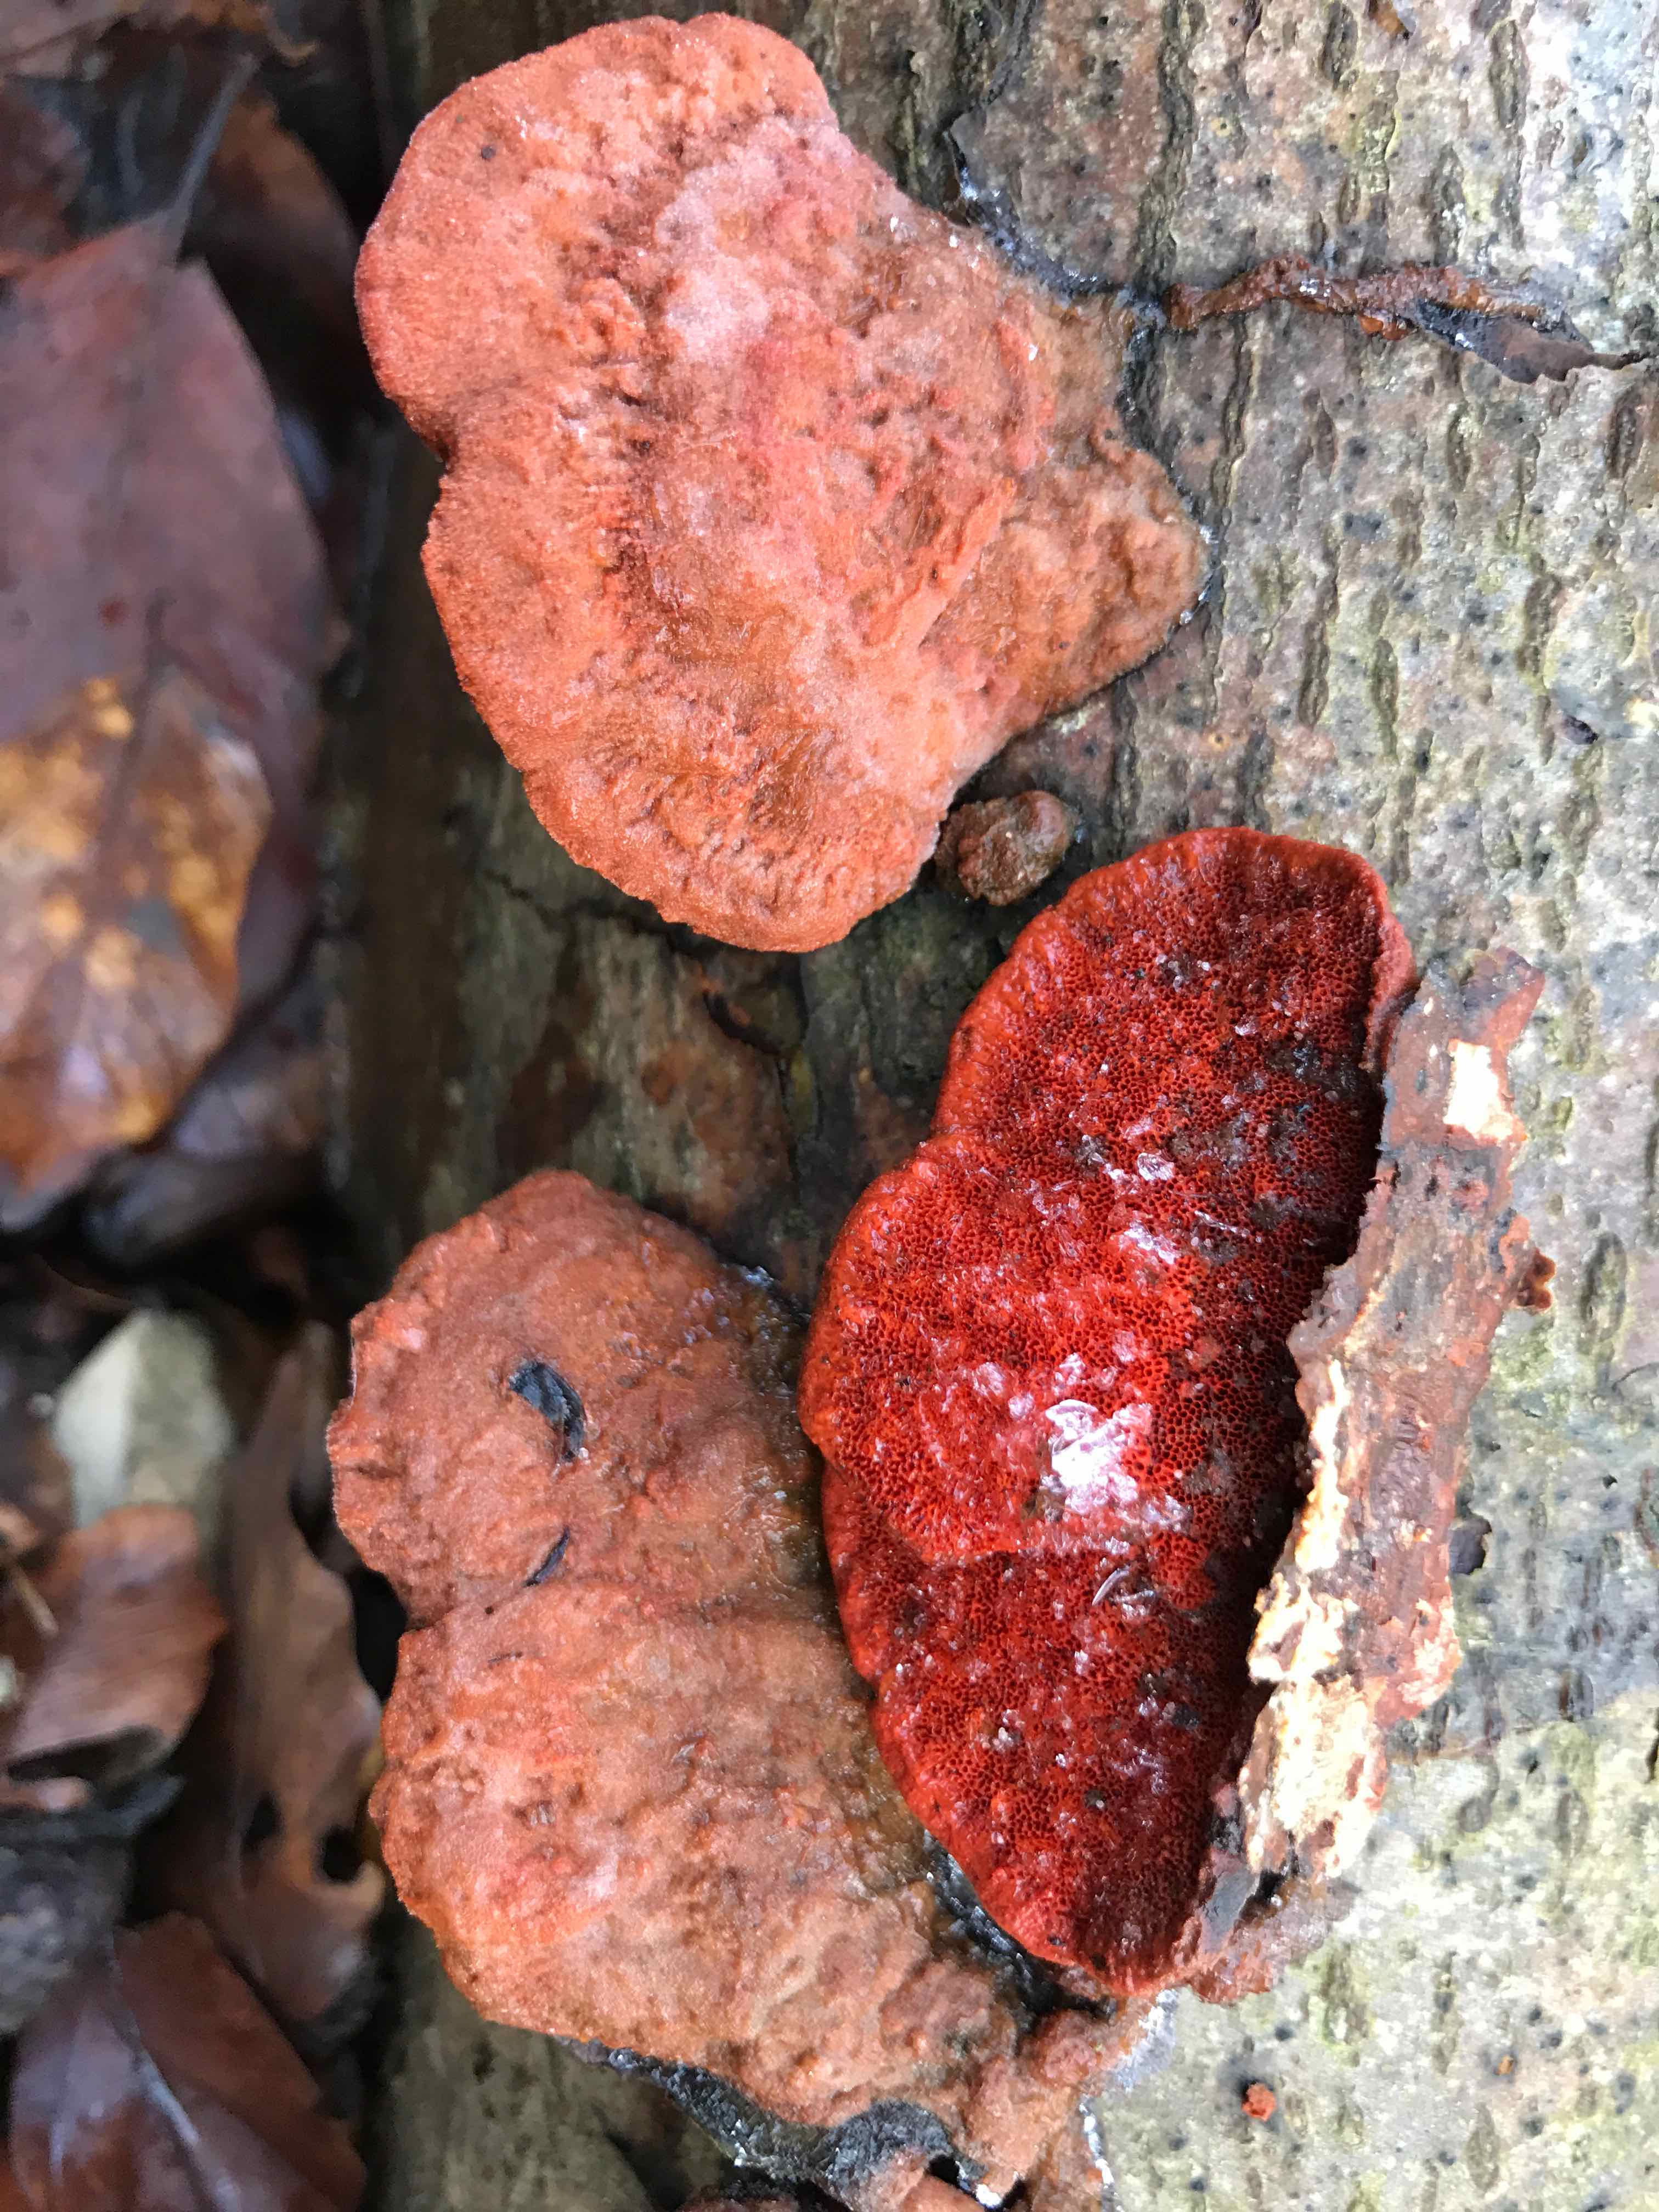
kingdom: Fungi
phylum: Basidiomycota
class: Agaricomycetes
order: Polyporales
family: Polyporaceae
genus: Trametes
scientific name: Trametes cinnabarina
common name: cinnoberporesvamp
